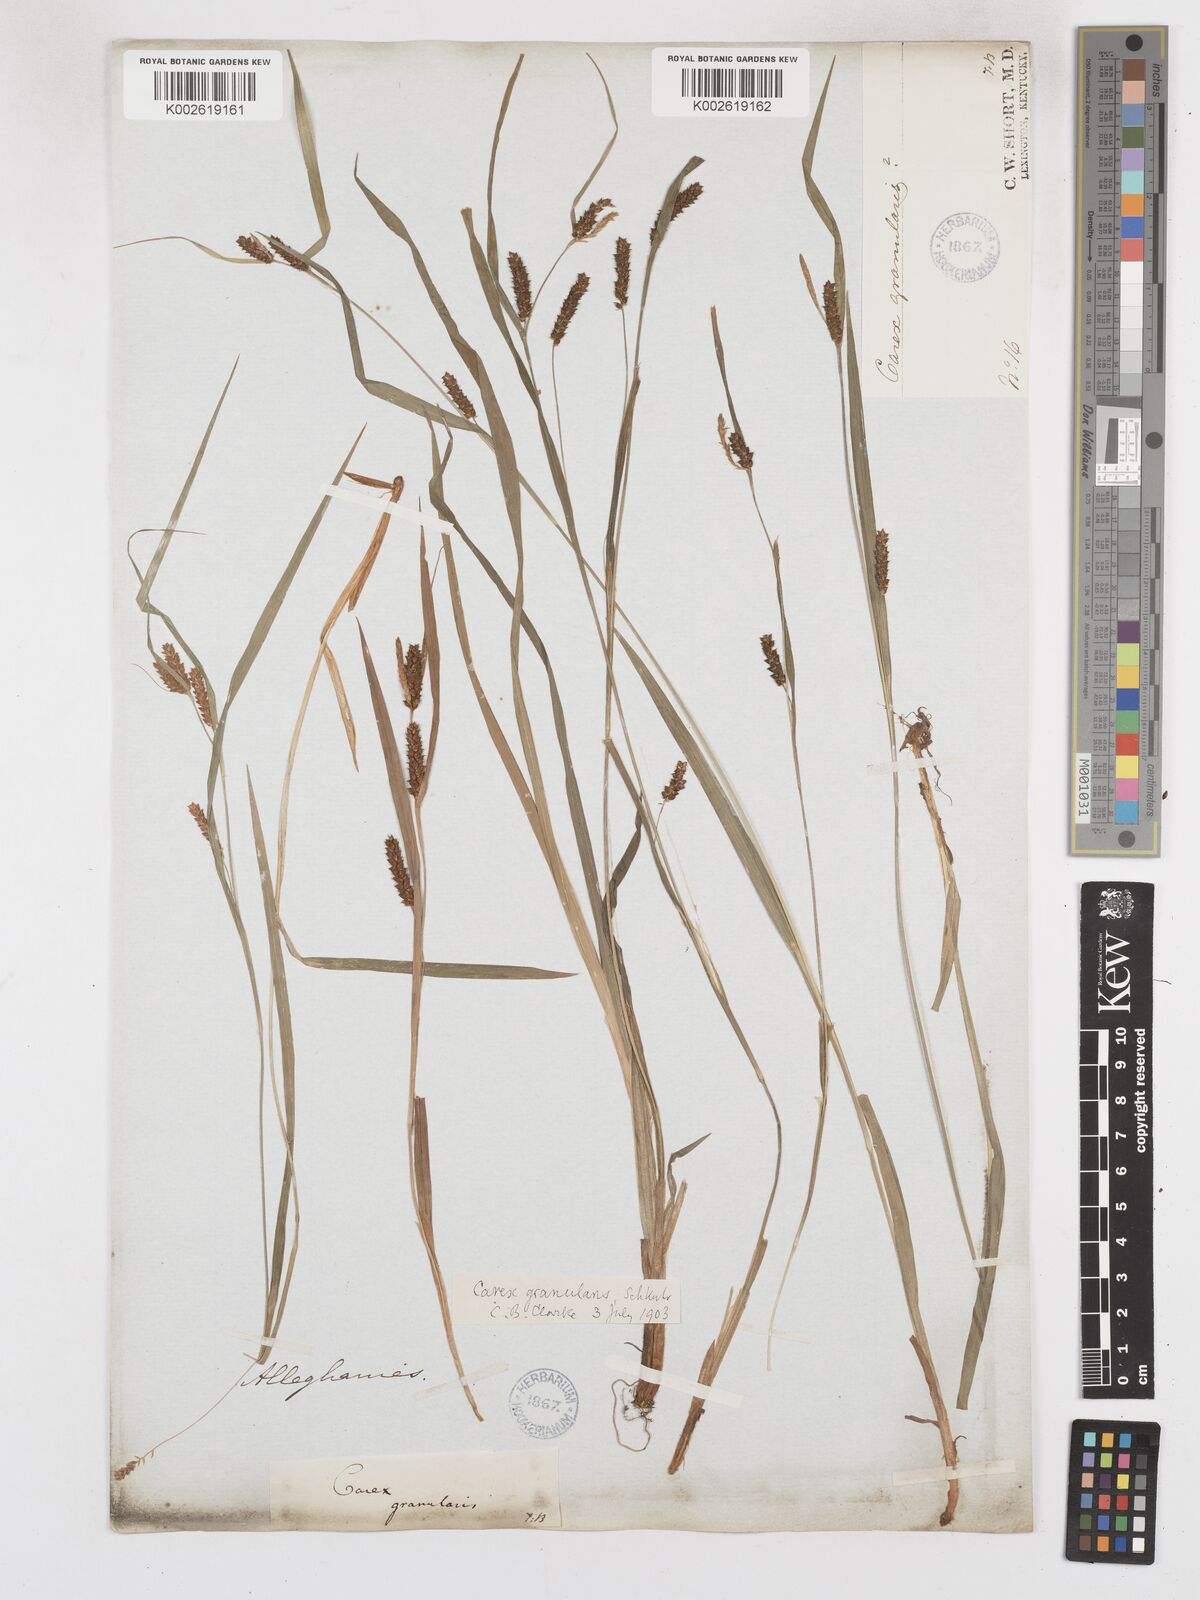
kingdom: Plantae
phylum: Tracheophyta
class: Liliopsida
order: Poales
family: Cyperaceae
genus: Carex
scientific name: Carex granularis
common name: Granular sedge
